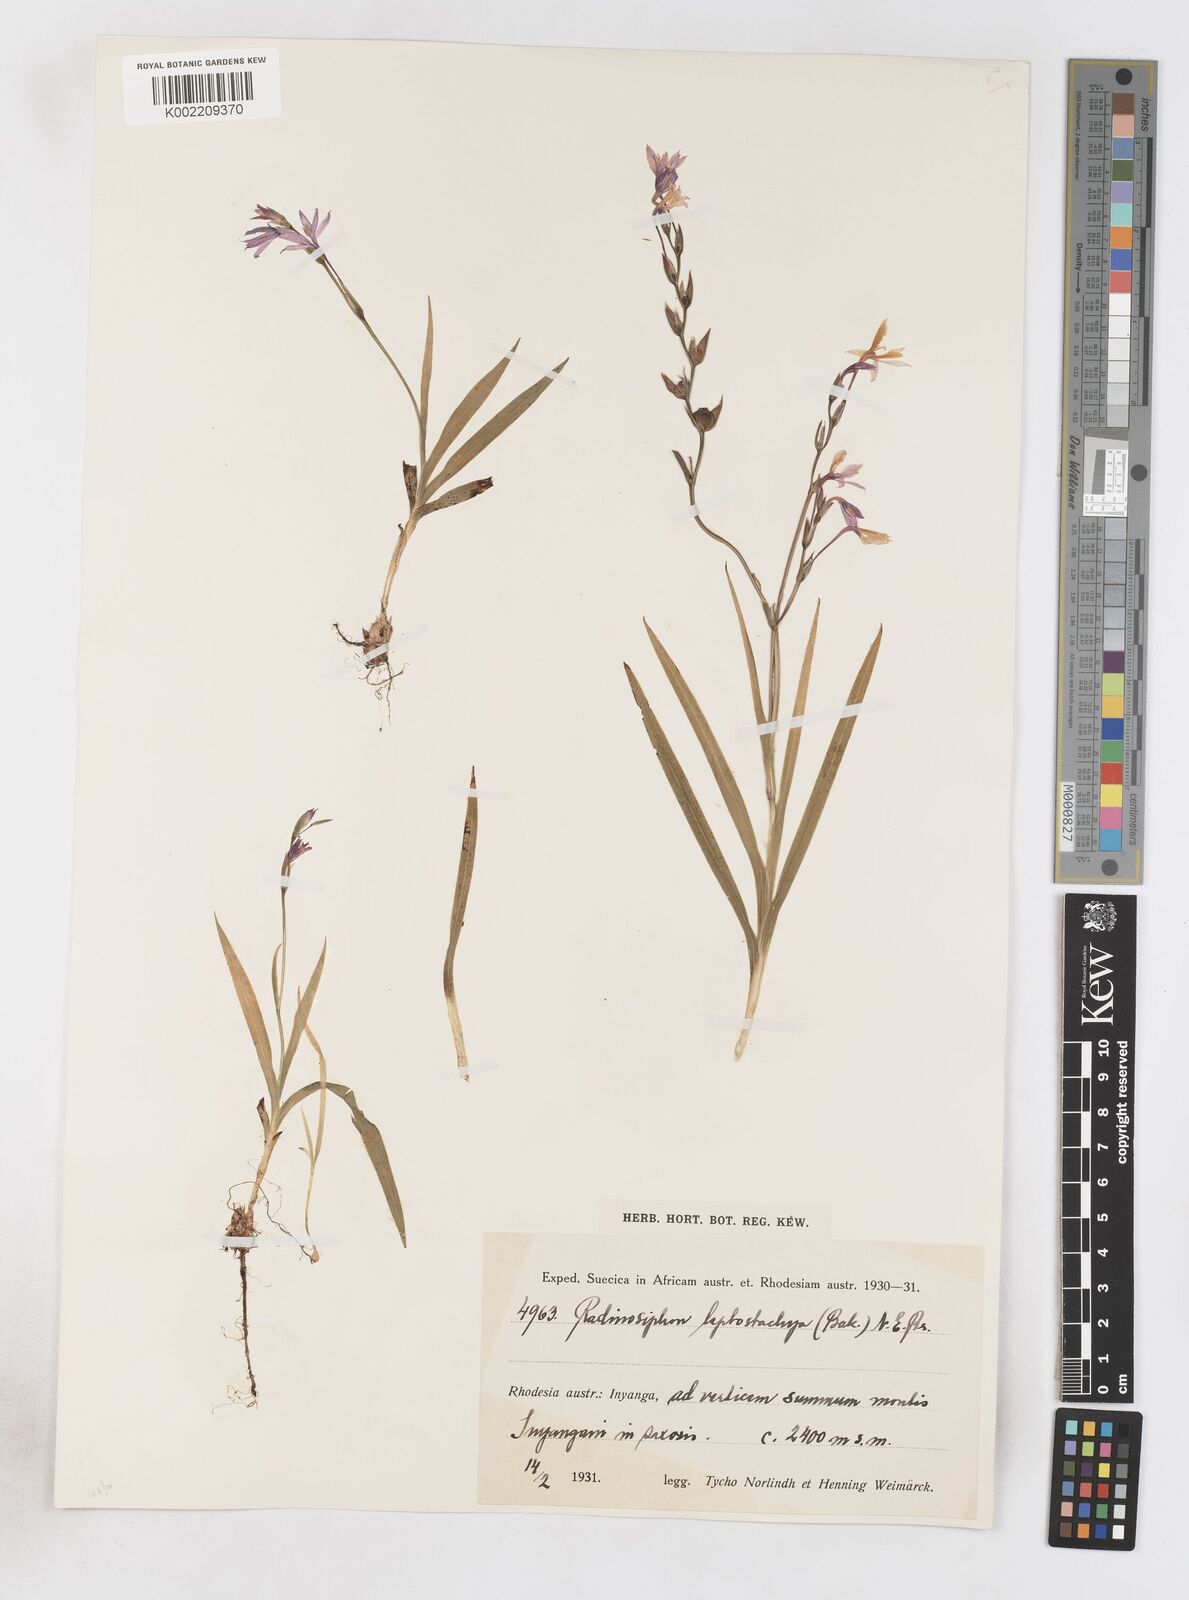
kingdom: Plantae
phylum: Tracheophyta
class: Liliopsida
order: Asparagales
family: Iridaceae
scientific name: Iridaceae
